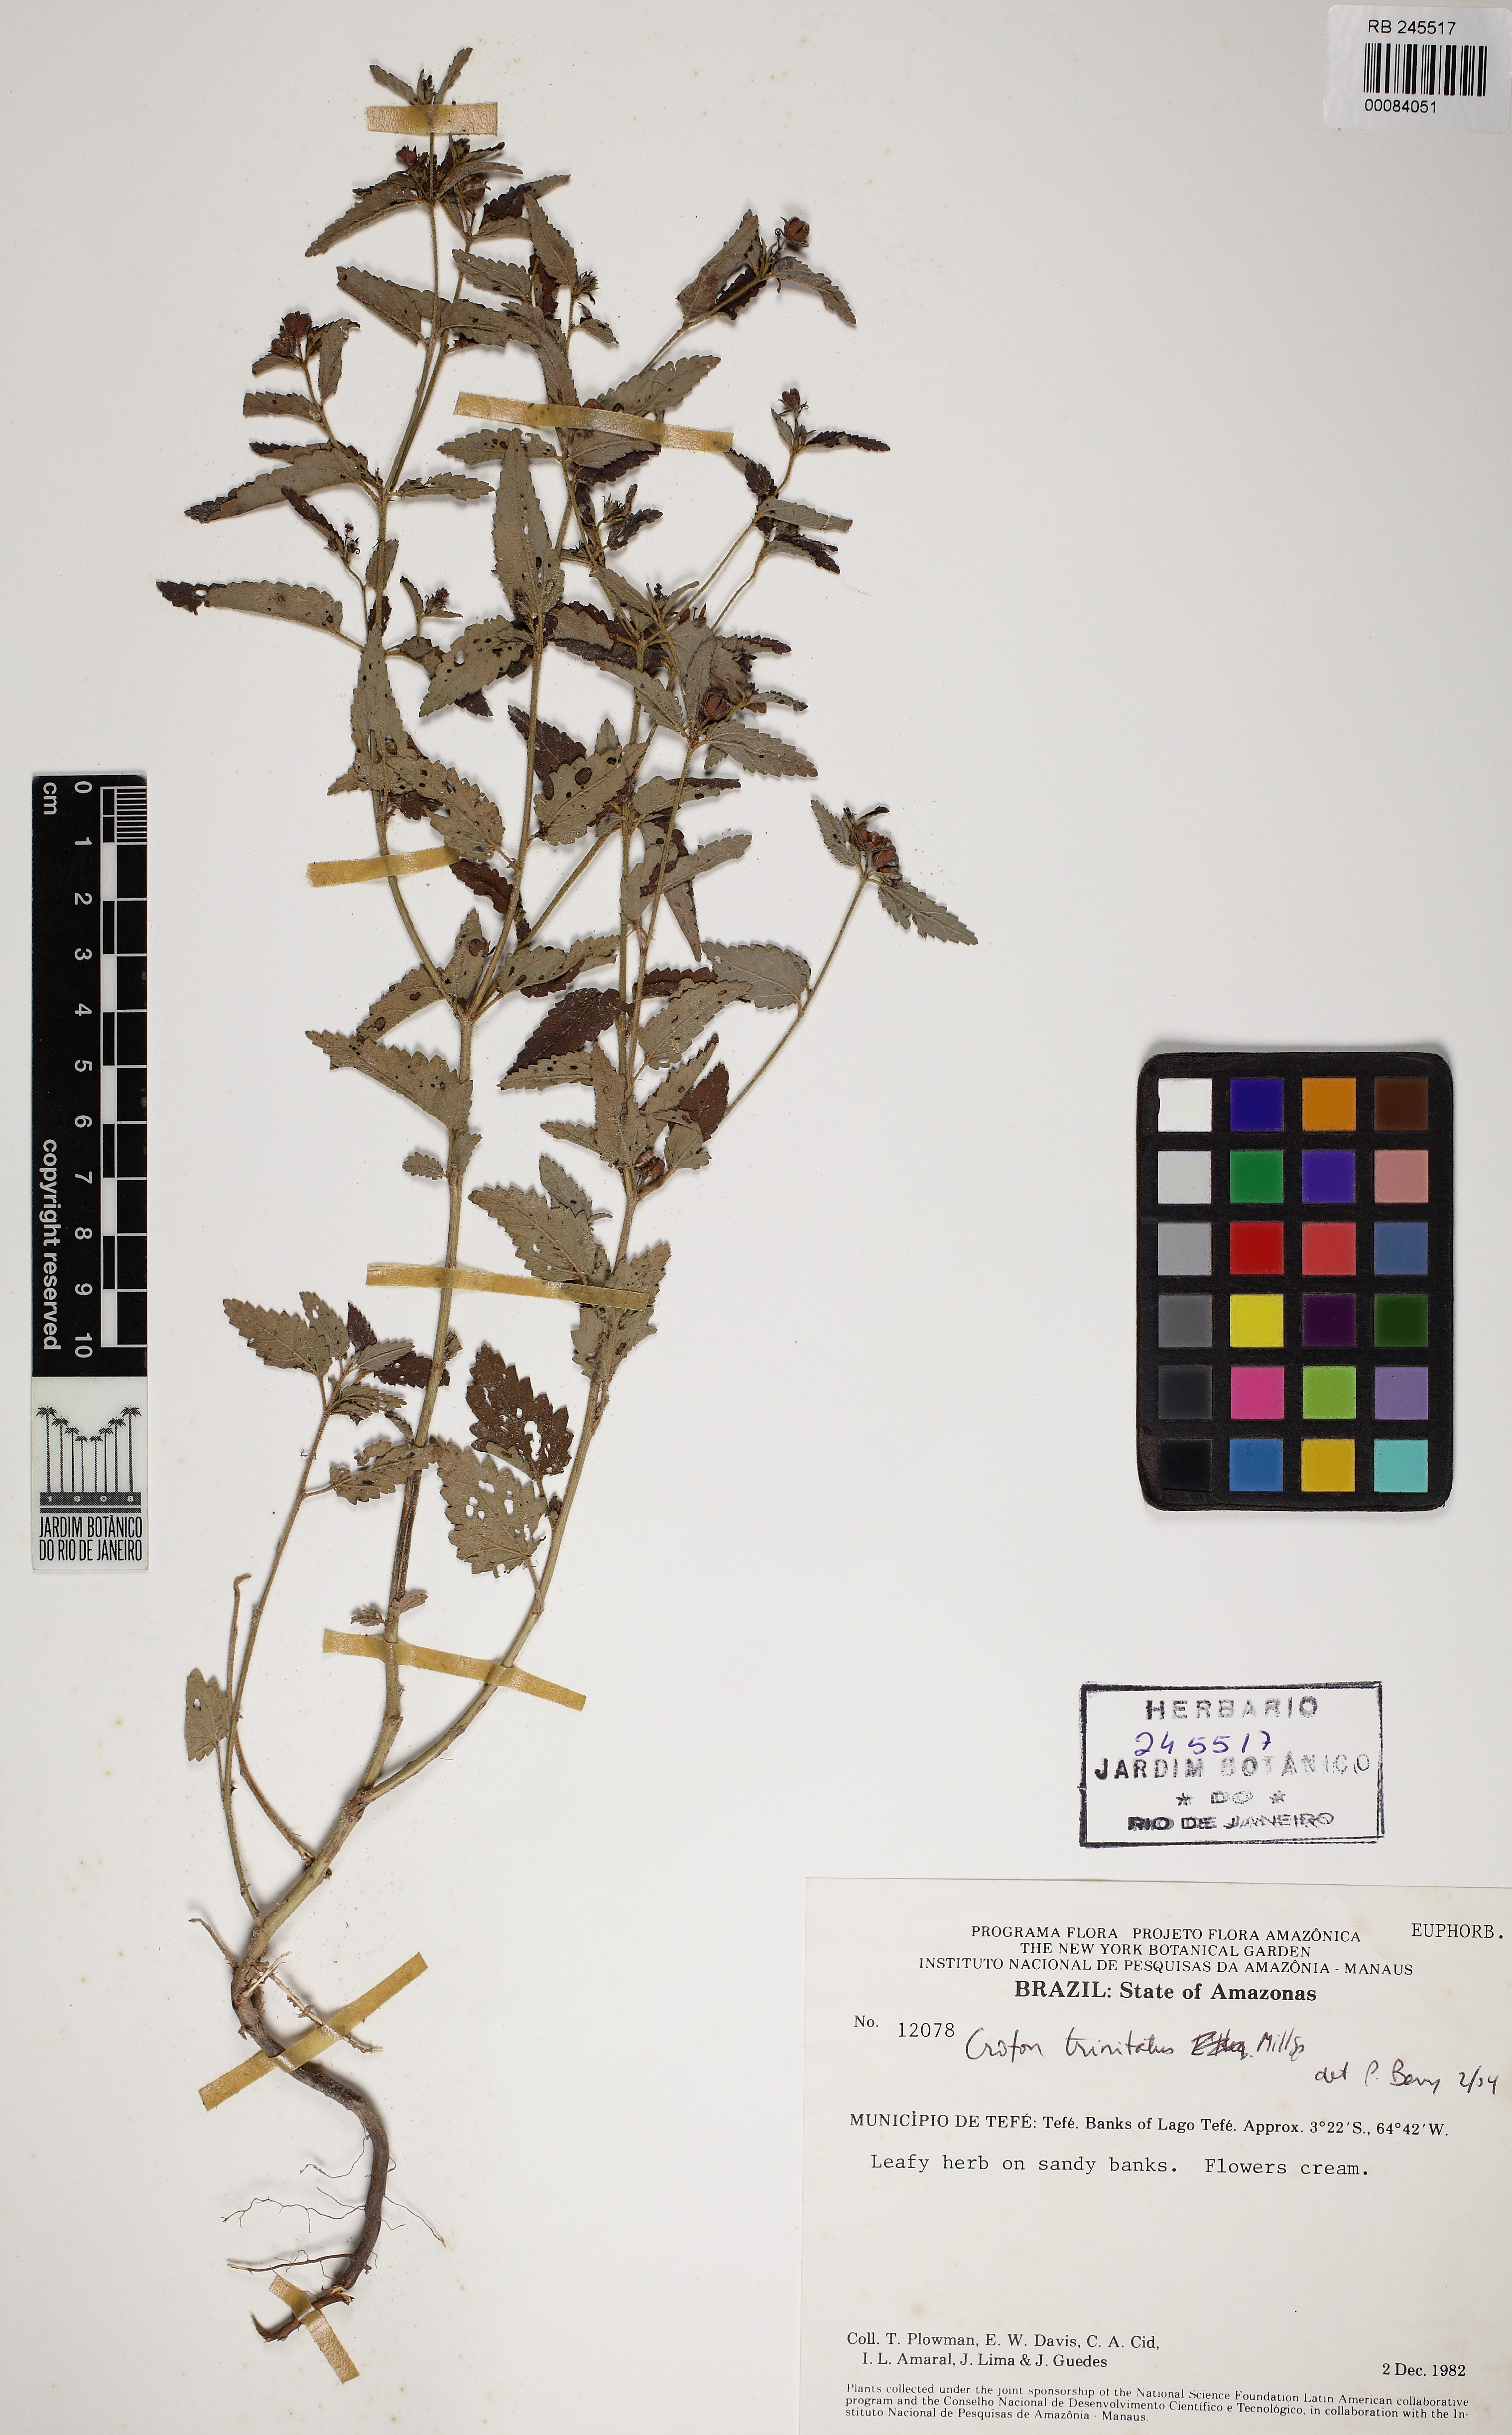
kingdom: Plantae
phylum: Tracheophyta
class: Magnoliopsida
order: Malpighiales
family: Euphorbiaceae
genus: Croton
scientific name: Croton trinitatis
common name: Roadside croton
